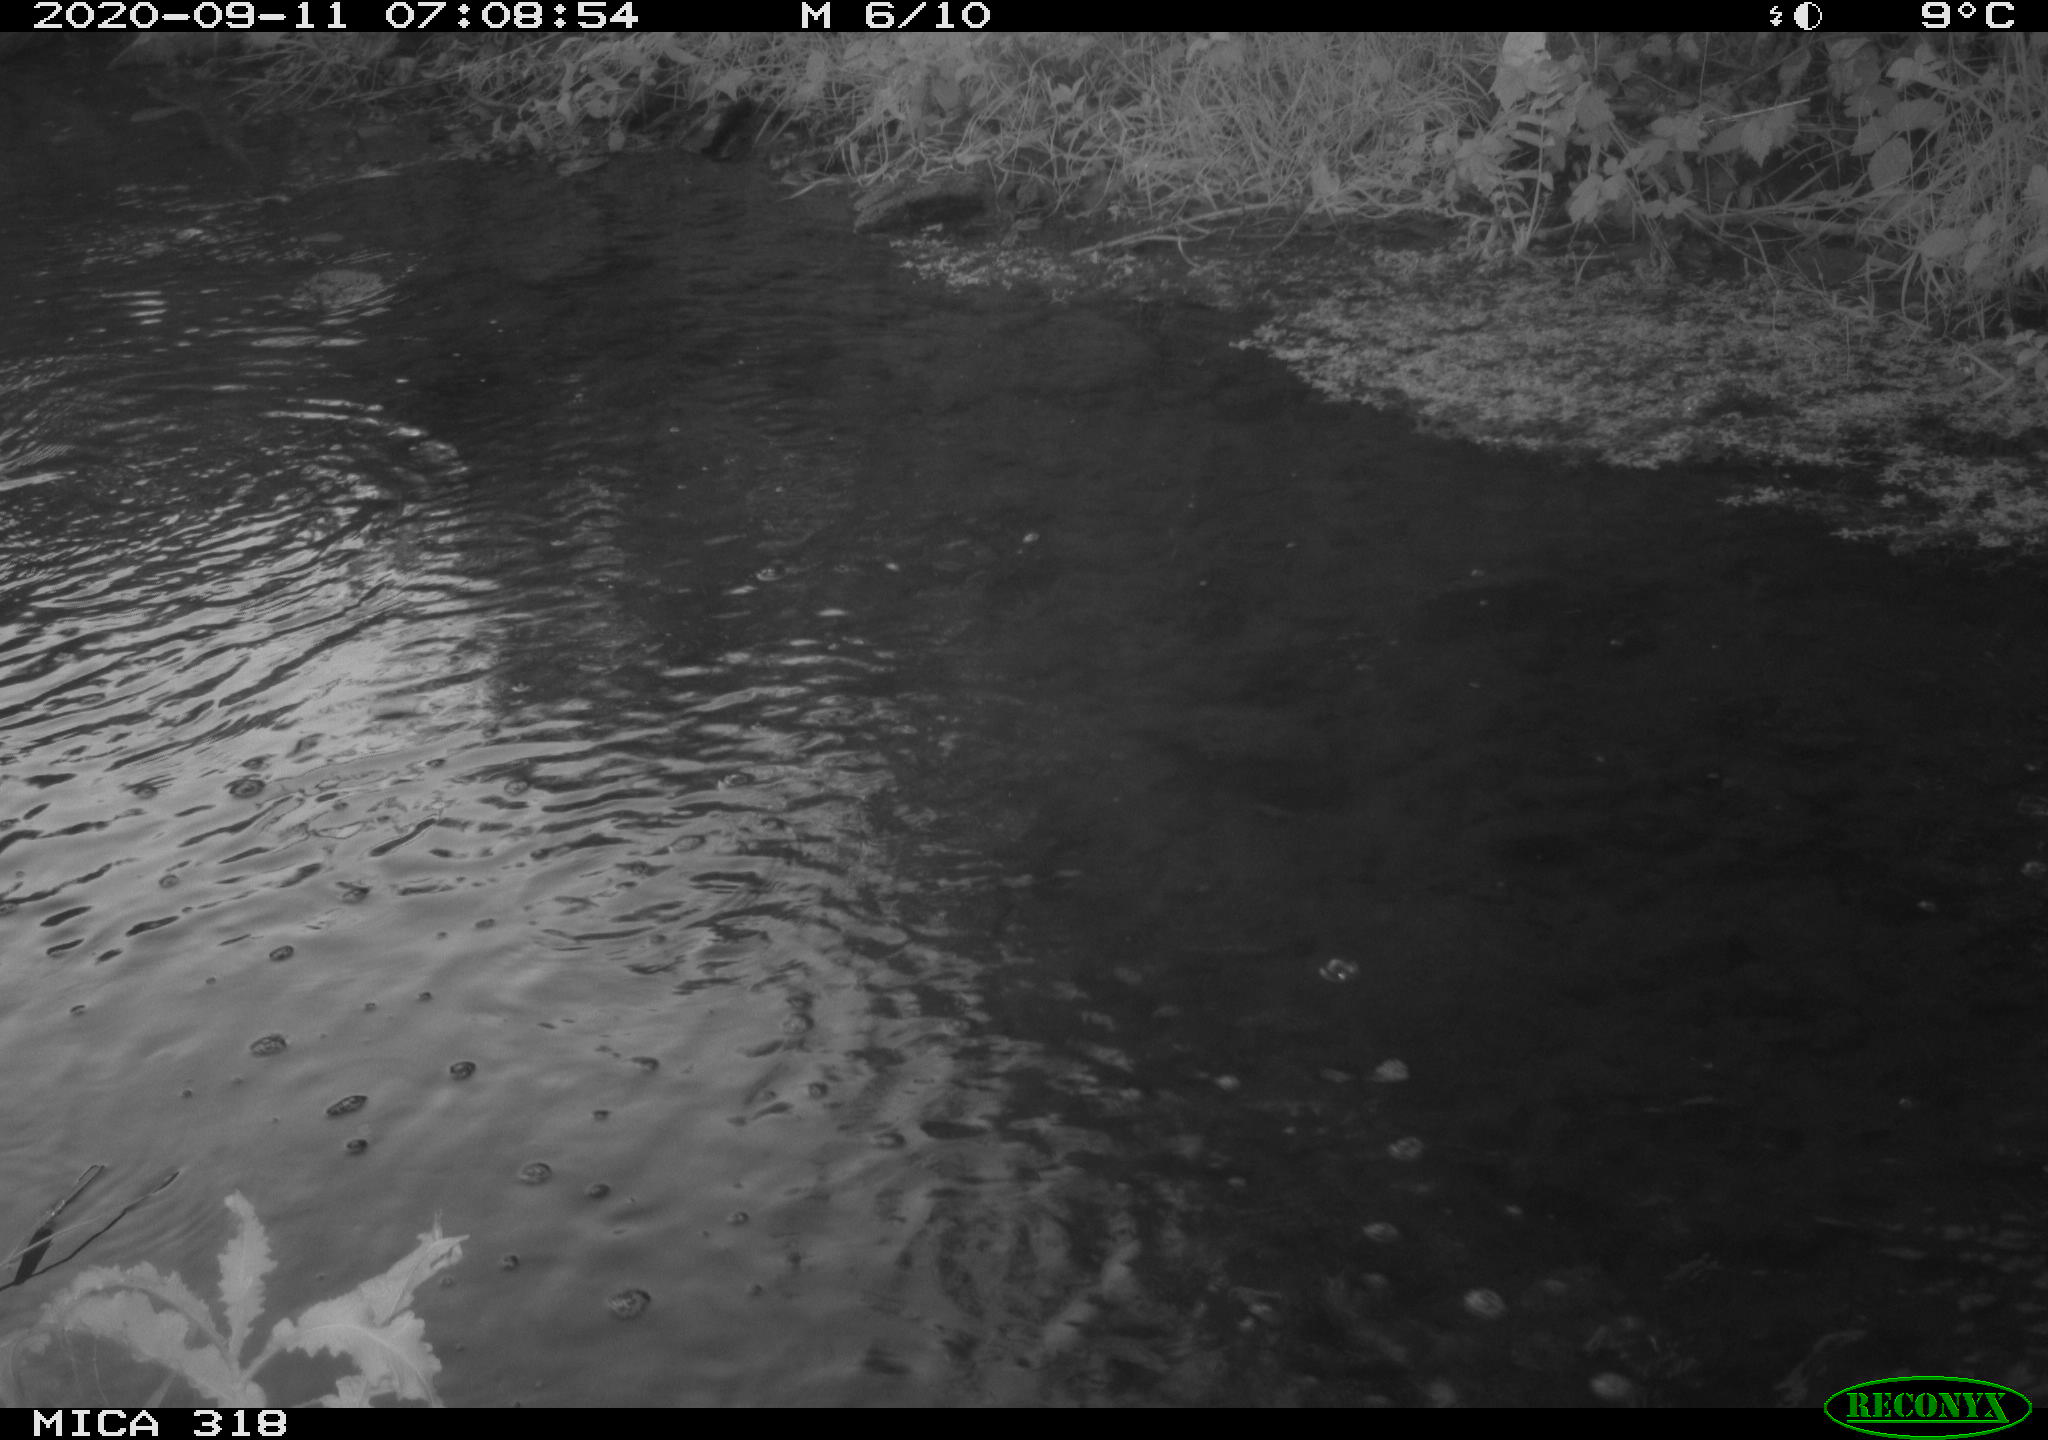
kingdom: Animalia
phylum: Chordata
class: Aves
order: Gruiformes
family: Rallidae
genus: Gallinula
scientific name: Gallinula chloropus
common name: Common moorhen
